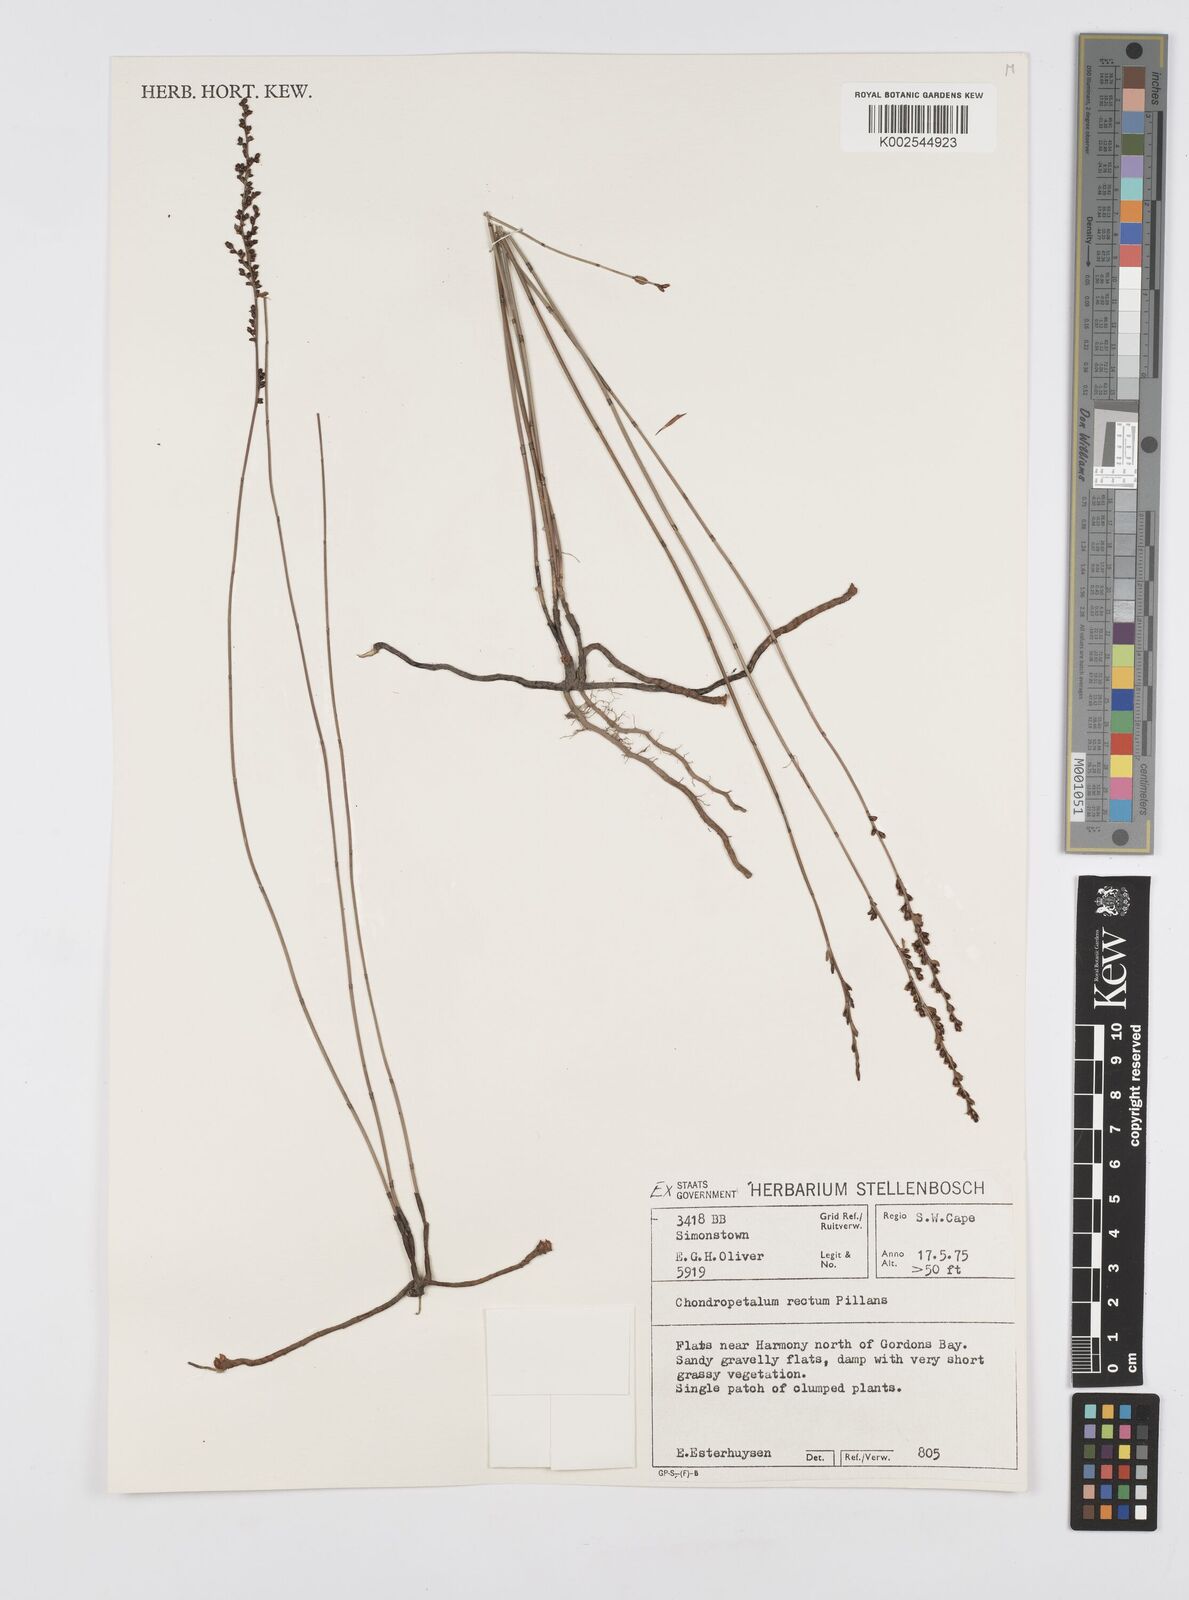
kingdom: Plantae
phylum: Tracheophyta
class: Liliopsida
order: Poales
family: Restionaceae
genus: Elegia
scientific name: Elegia recta
